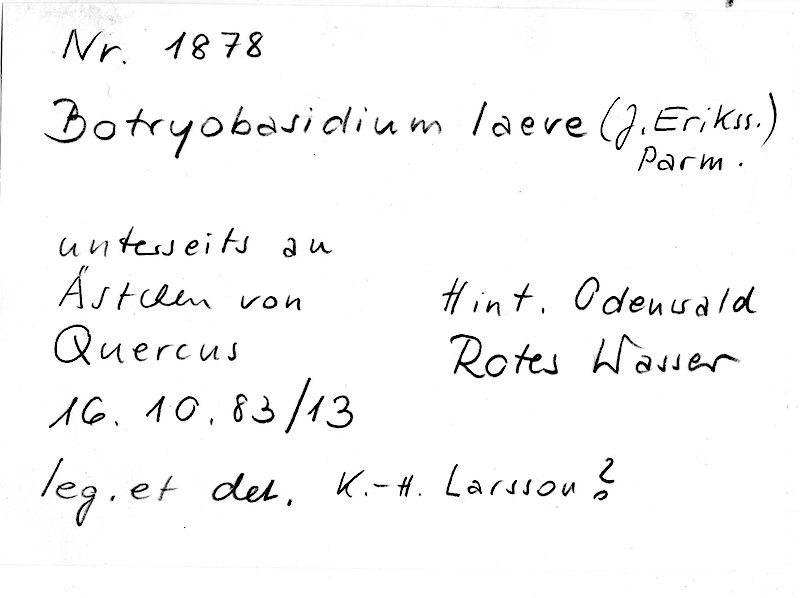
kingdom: Plantae
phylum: Tracheophyta
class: Magnoliopsida
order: Fagales
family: Fagaceae
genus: Quercus
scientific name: Quercus
